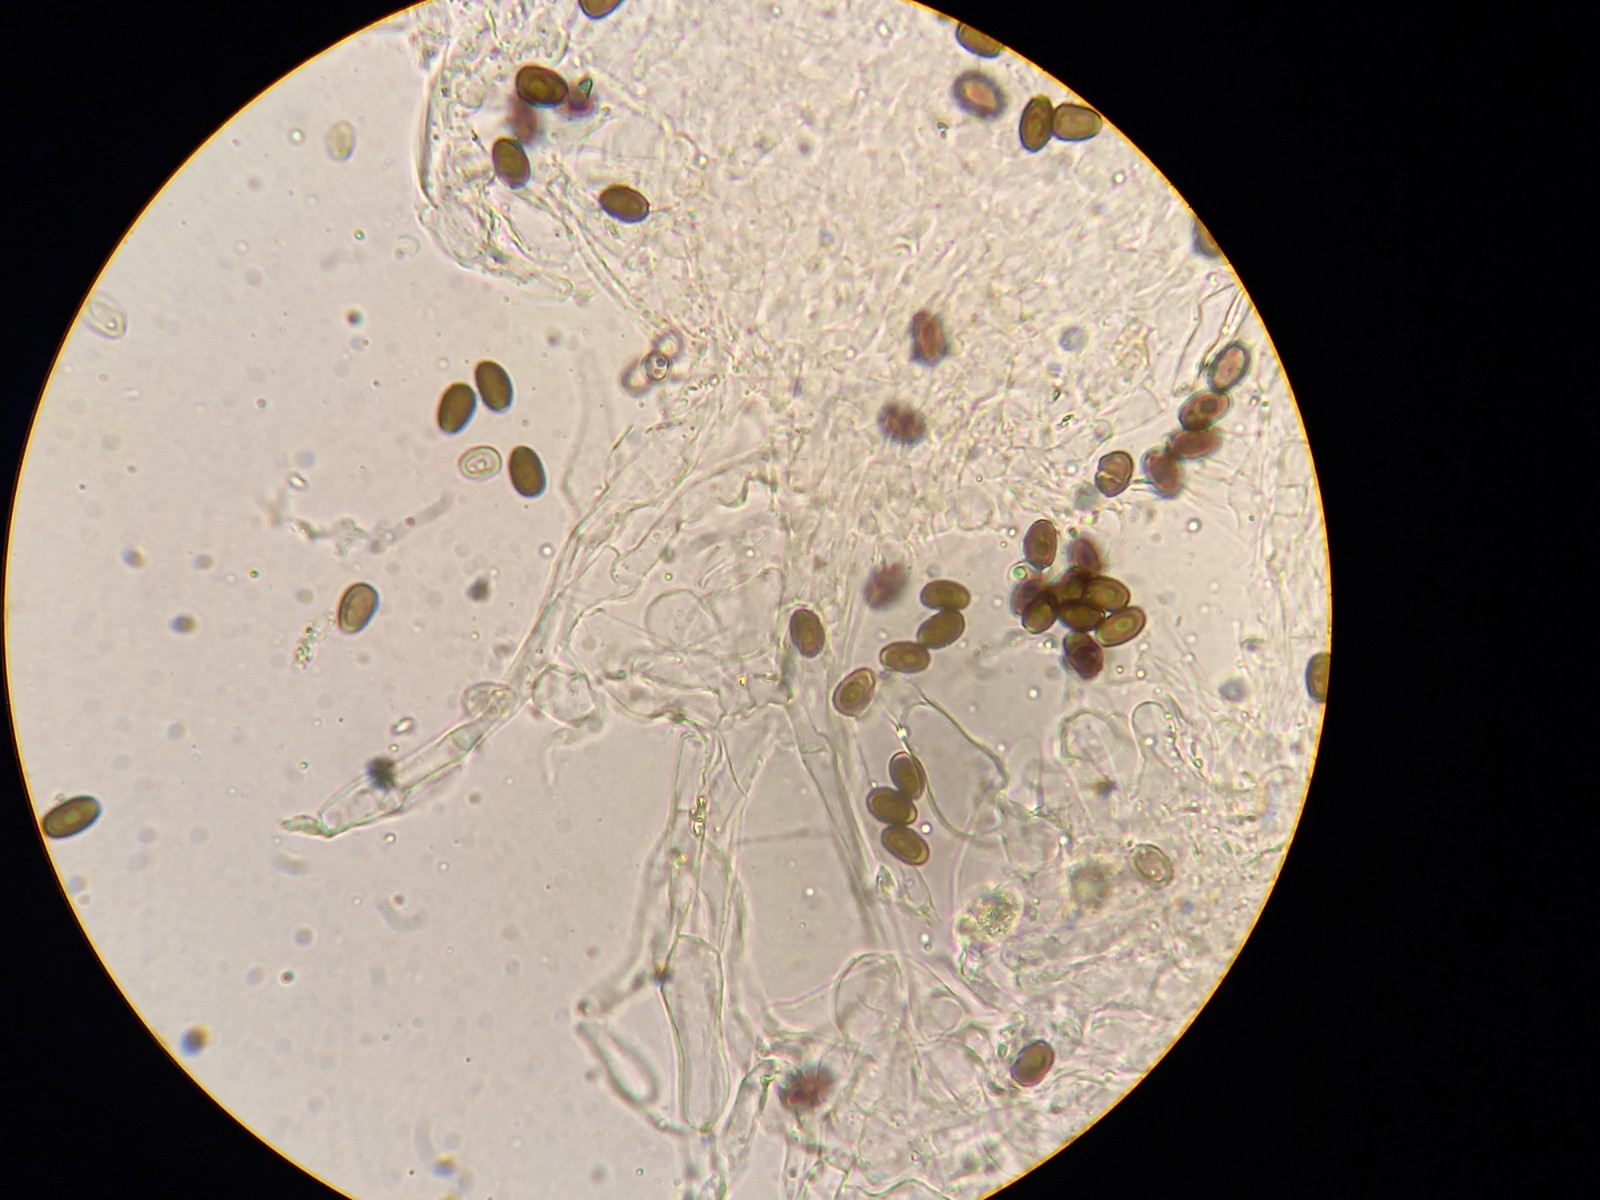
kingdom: Fungi
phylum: Basidiomycota
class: Agaricomycetes
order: Agaricales
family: Psathyrellaceae
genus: Psathyrella
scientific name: Psathyrella seymourensis
